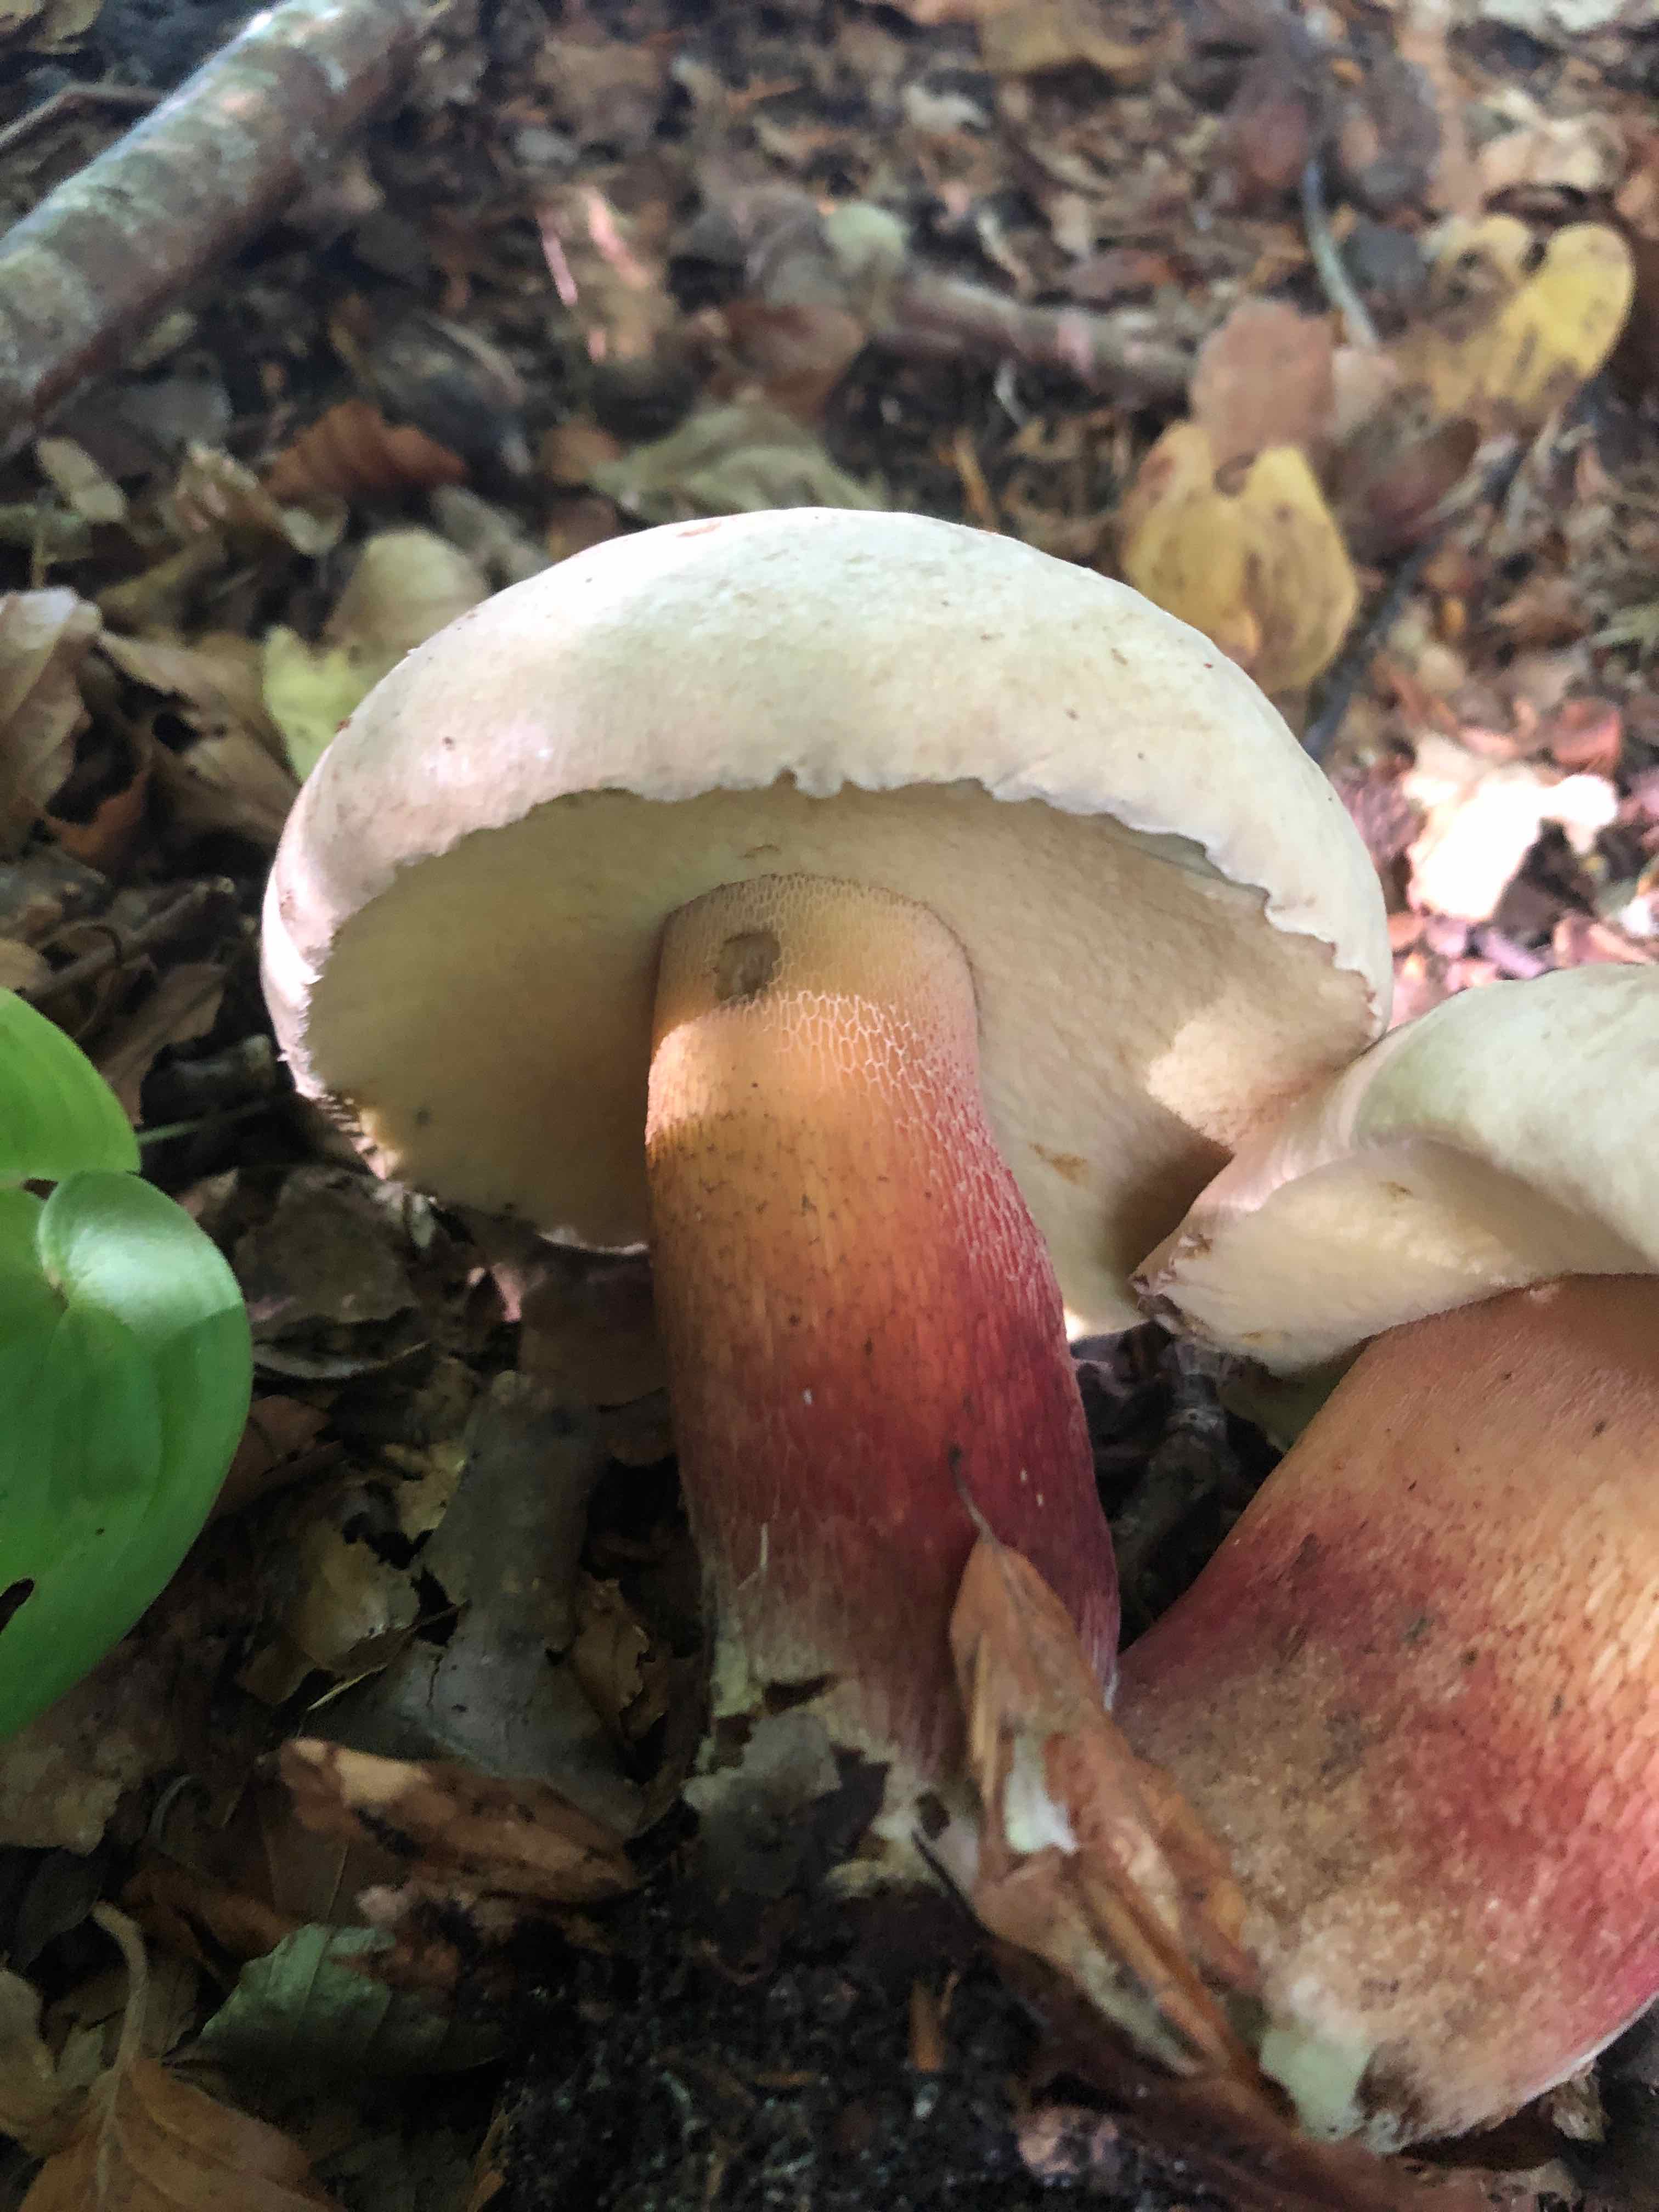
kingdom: Fungi
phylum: Basidiomycota
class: Agaricomycetes
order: Boletales
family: Boletaceae
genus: Caloboletus
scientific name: Caloboletus calopus
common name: skønfodet rørhat
